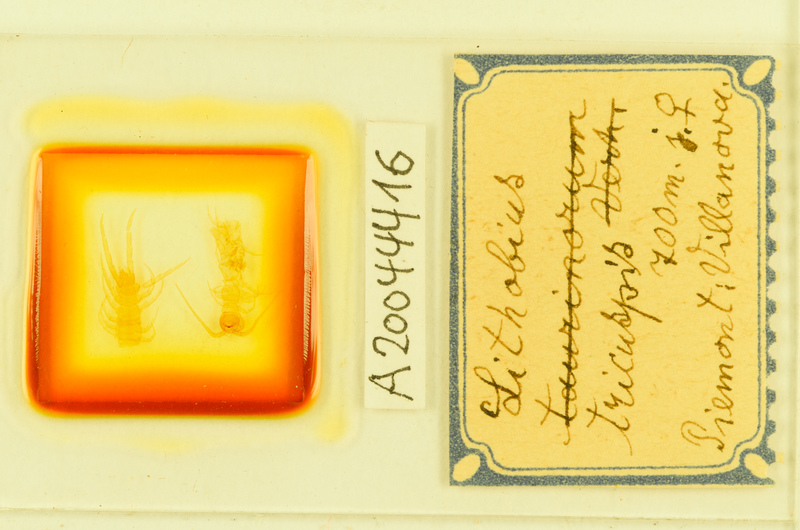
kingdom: Animalia
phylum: Arthropoda
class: Chilopoda
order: Lithobiomorpha
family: Lithobiidae
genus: Lithobius
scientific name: Lithobius tricuspis
